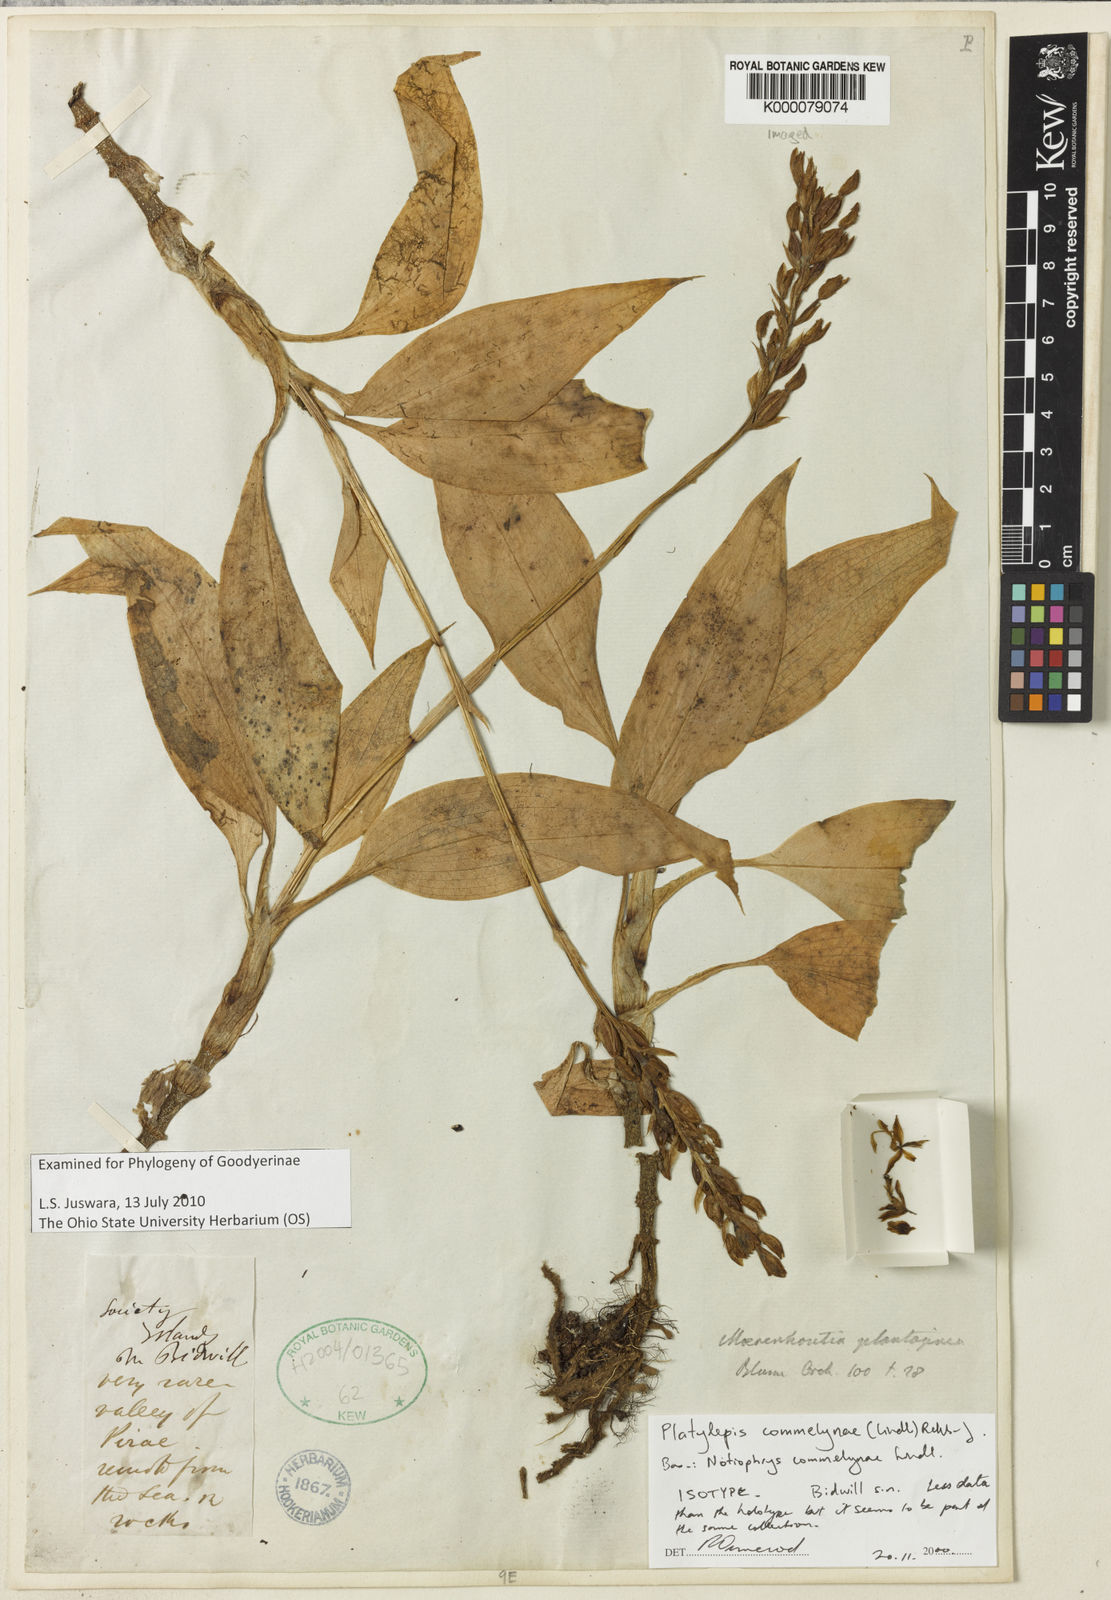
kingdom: Plantae
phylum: Tracheophyta
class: Liliopsida
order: Asparagales
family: Orchidaceae
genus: Platylepis
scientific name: Platylepis commelynae
